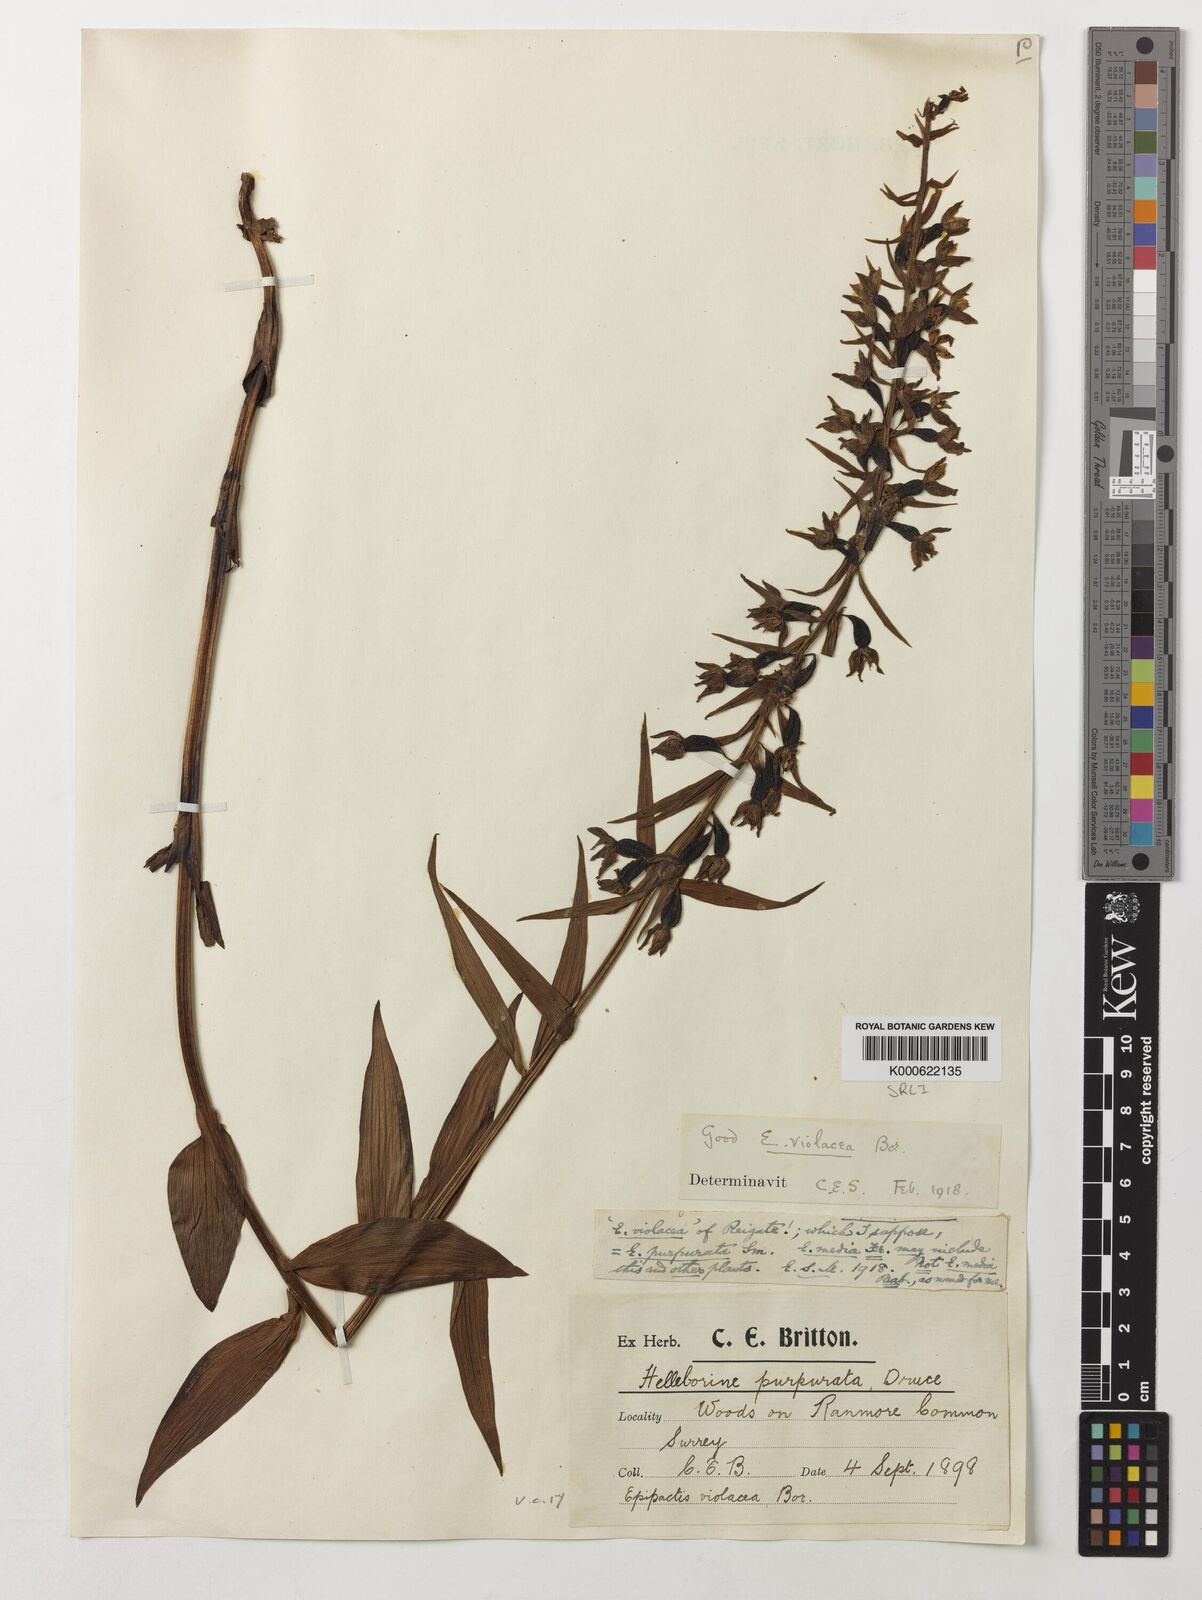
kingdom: Plantae
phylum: Tracheophyta
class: Liliopsida
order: Asparagales
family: Orchidaceae
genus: Epipactis
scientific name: Epipactis purpurata
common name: Violet helleborine
